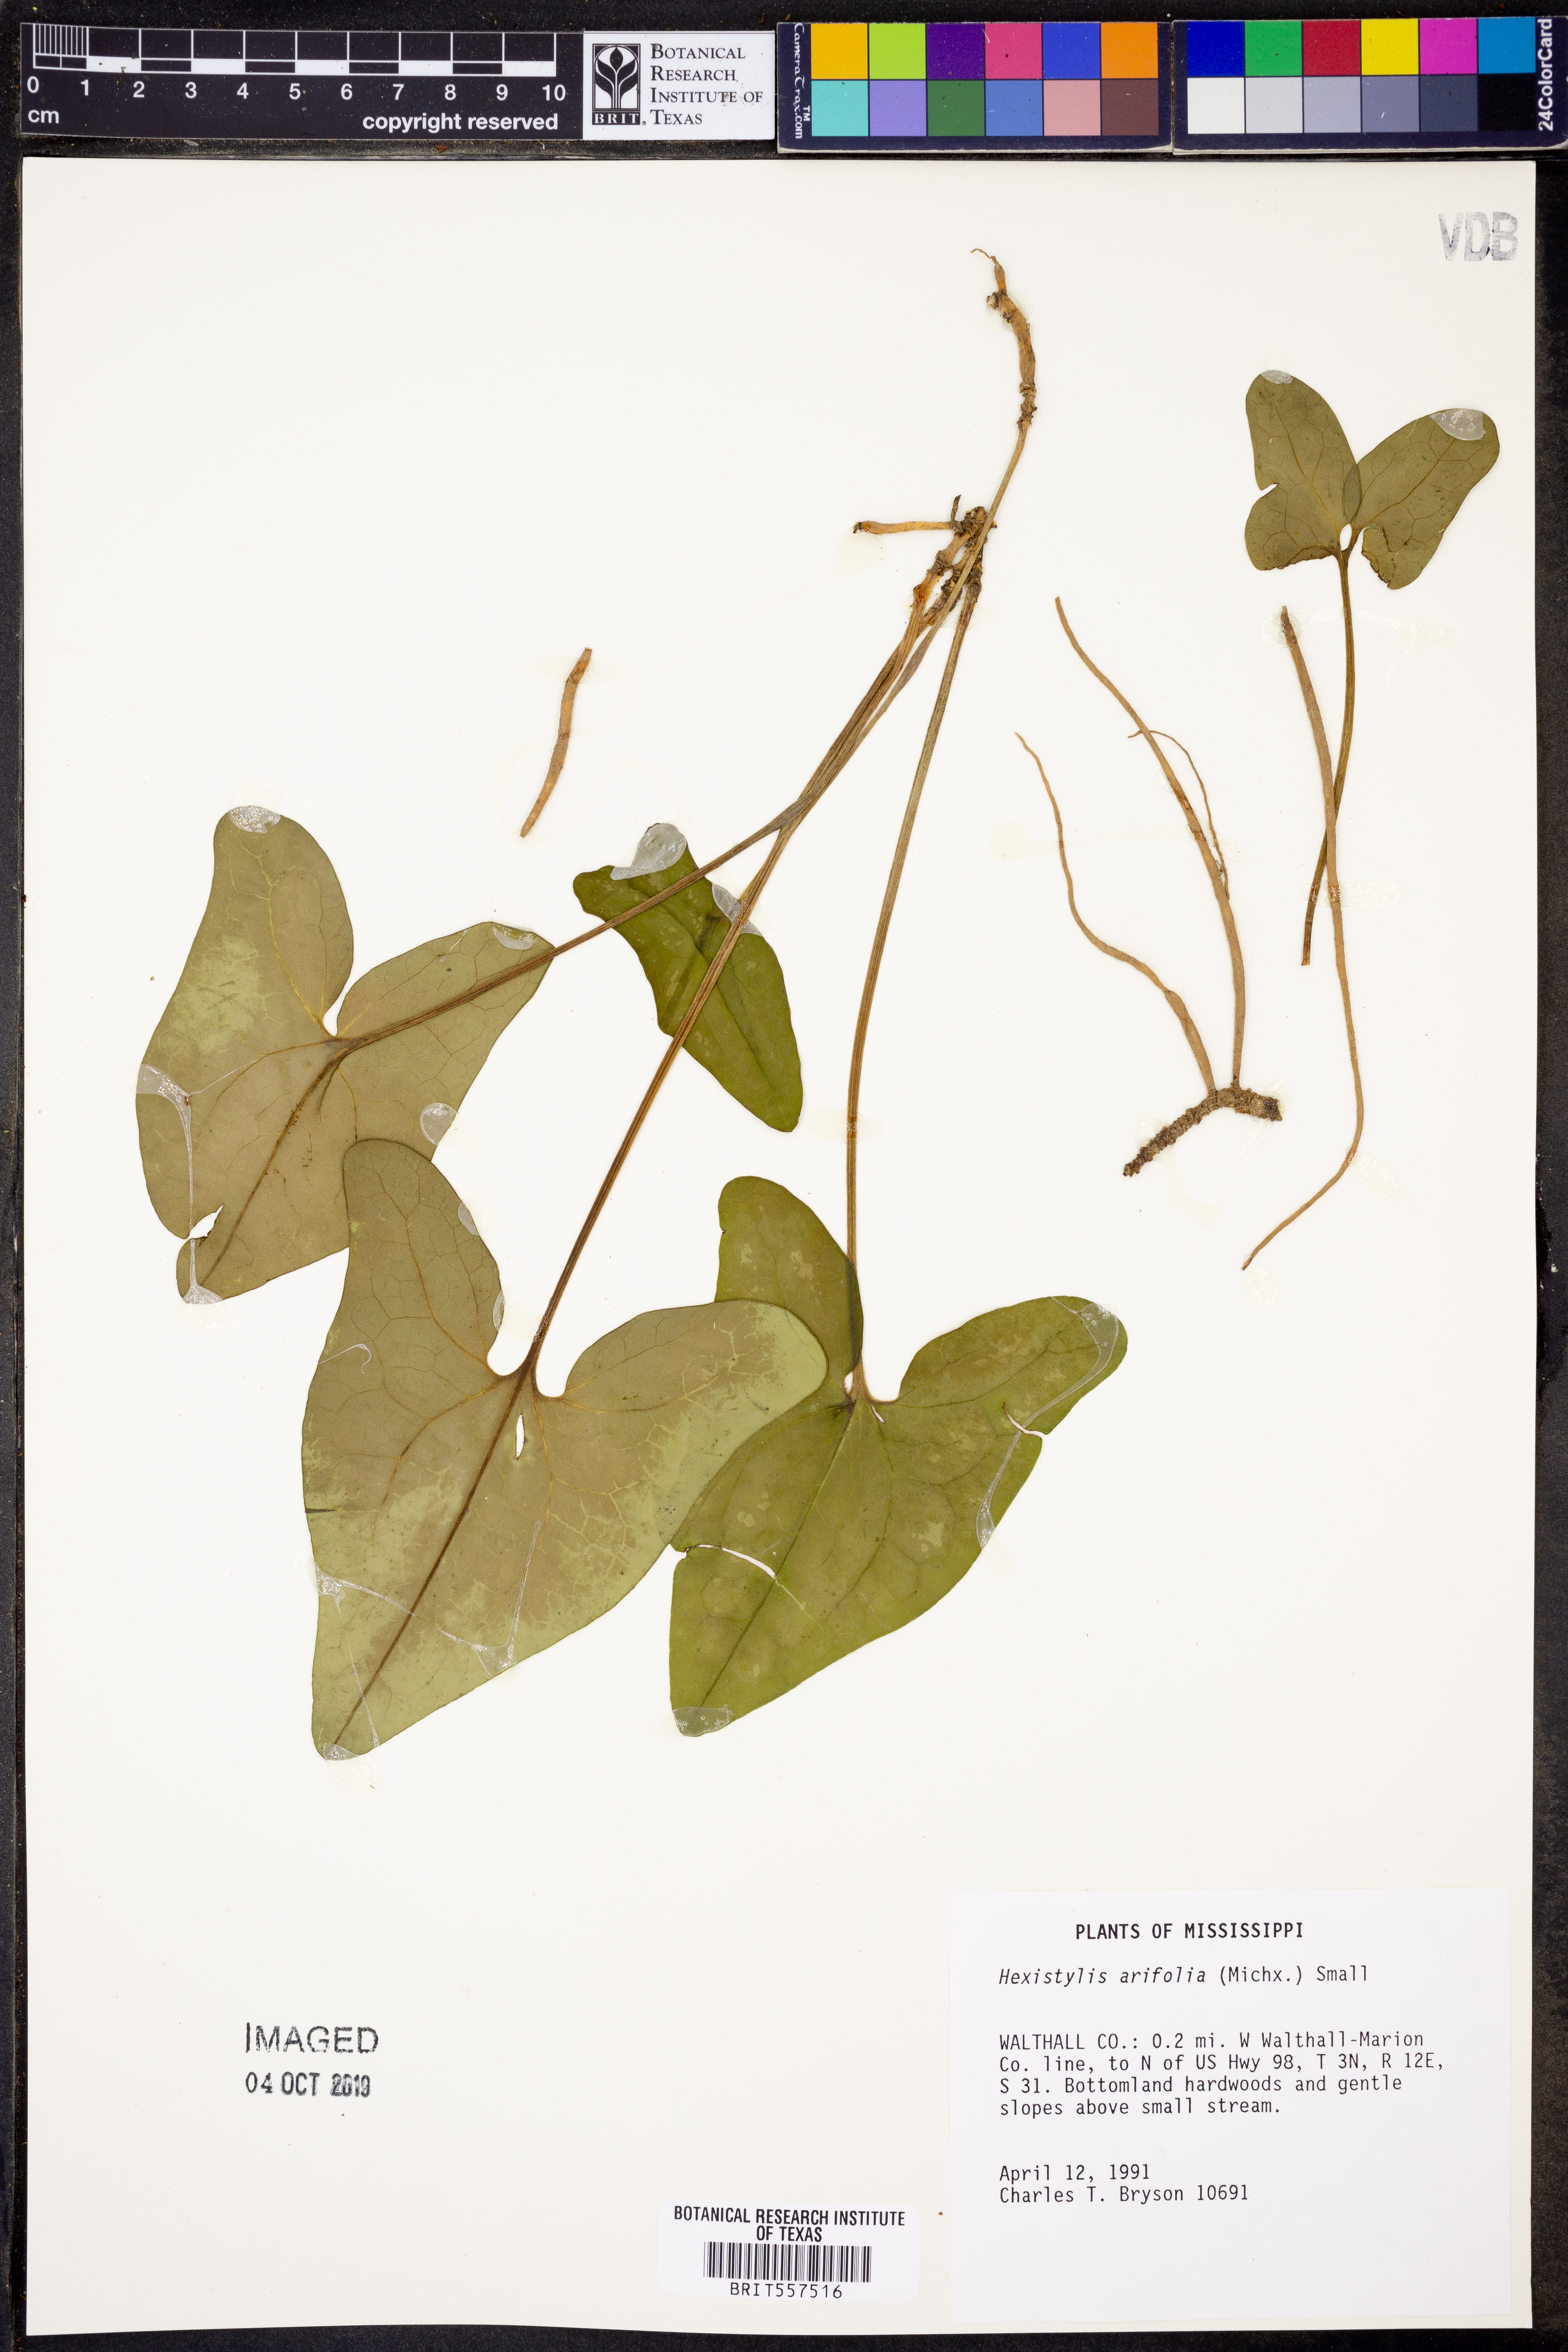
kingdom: Plantae
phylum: Tracheophyta
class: Magnoliopsida
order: Piperales
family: Aristolochiaceae
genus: Hexastylis
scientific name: Hexastylis arifolia
